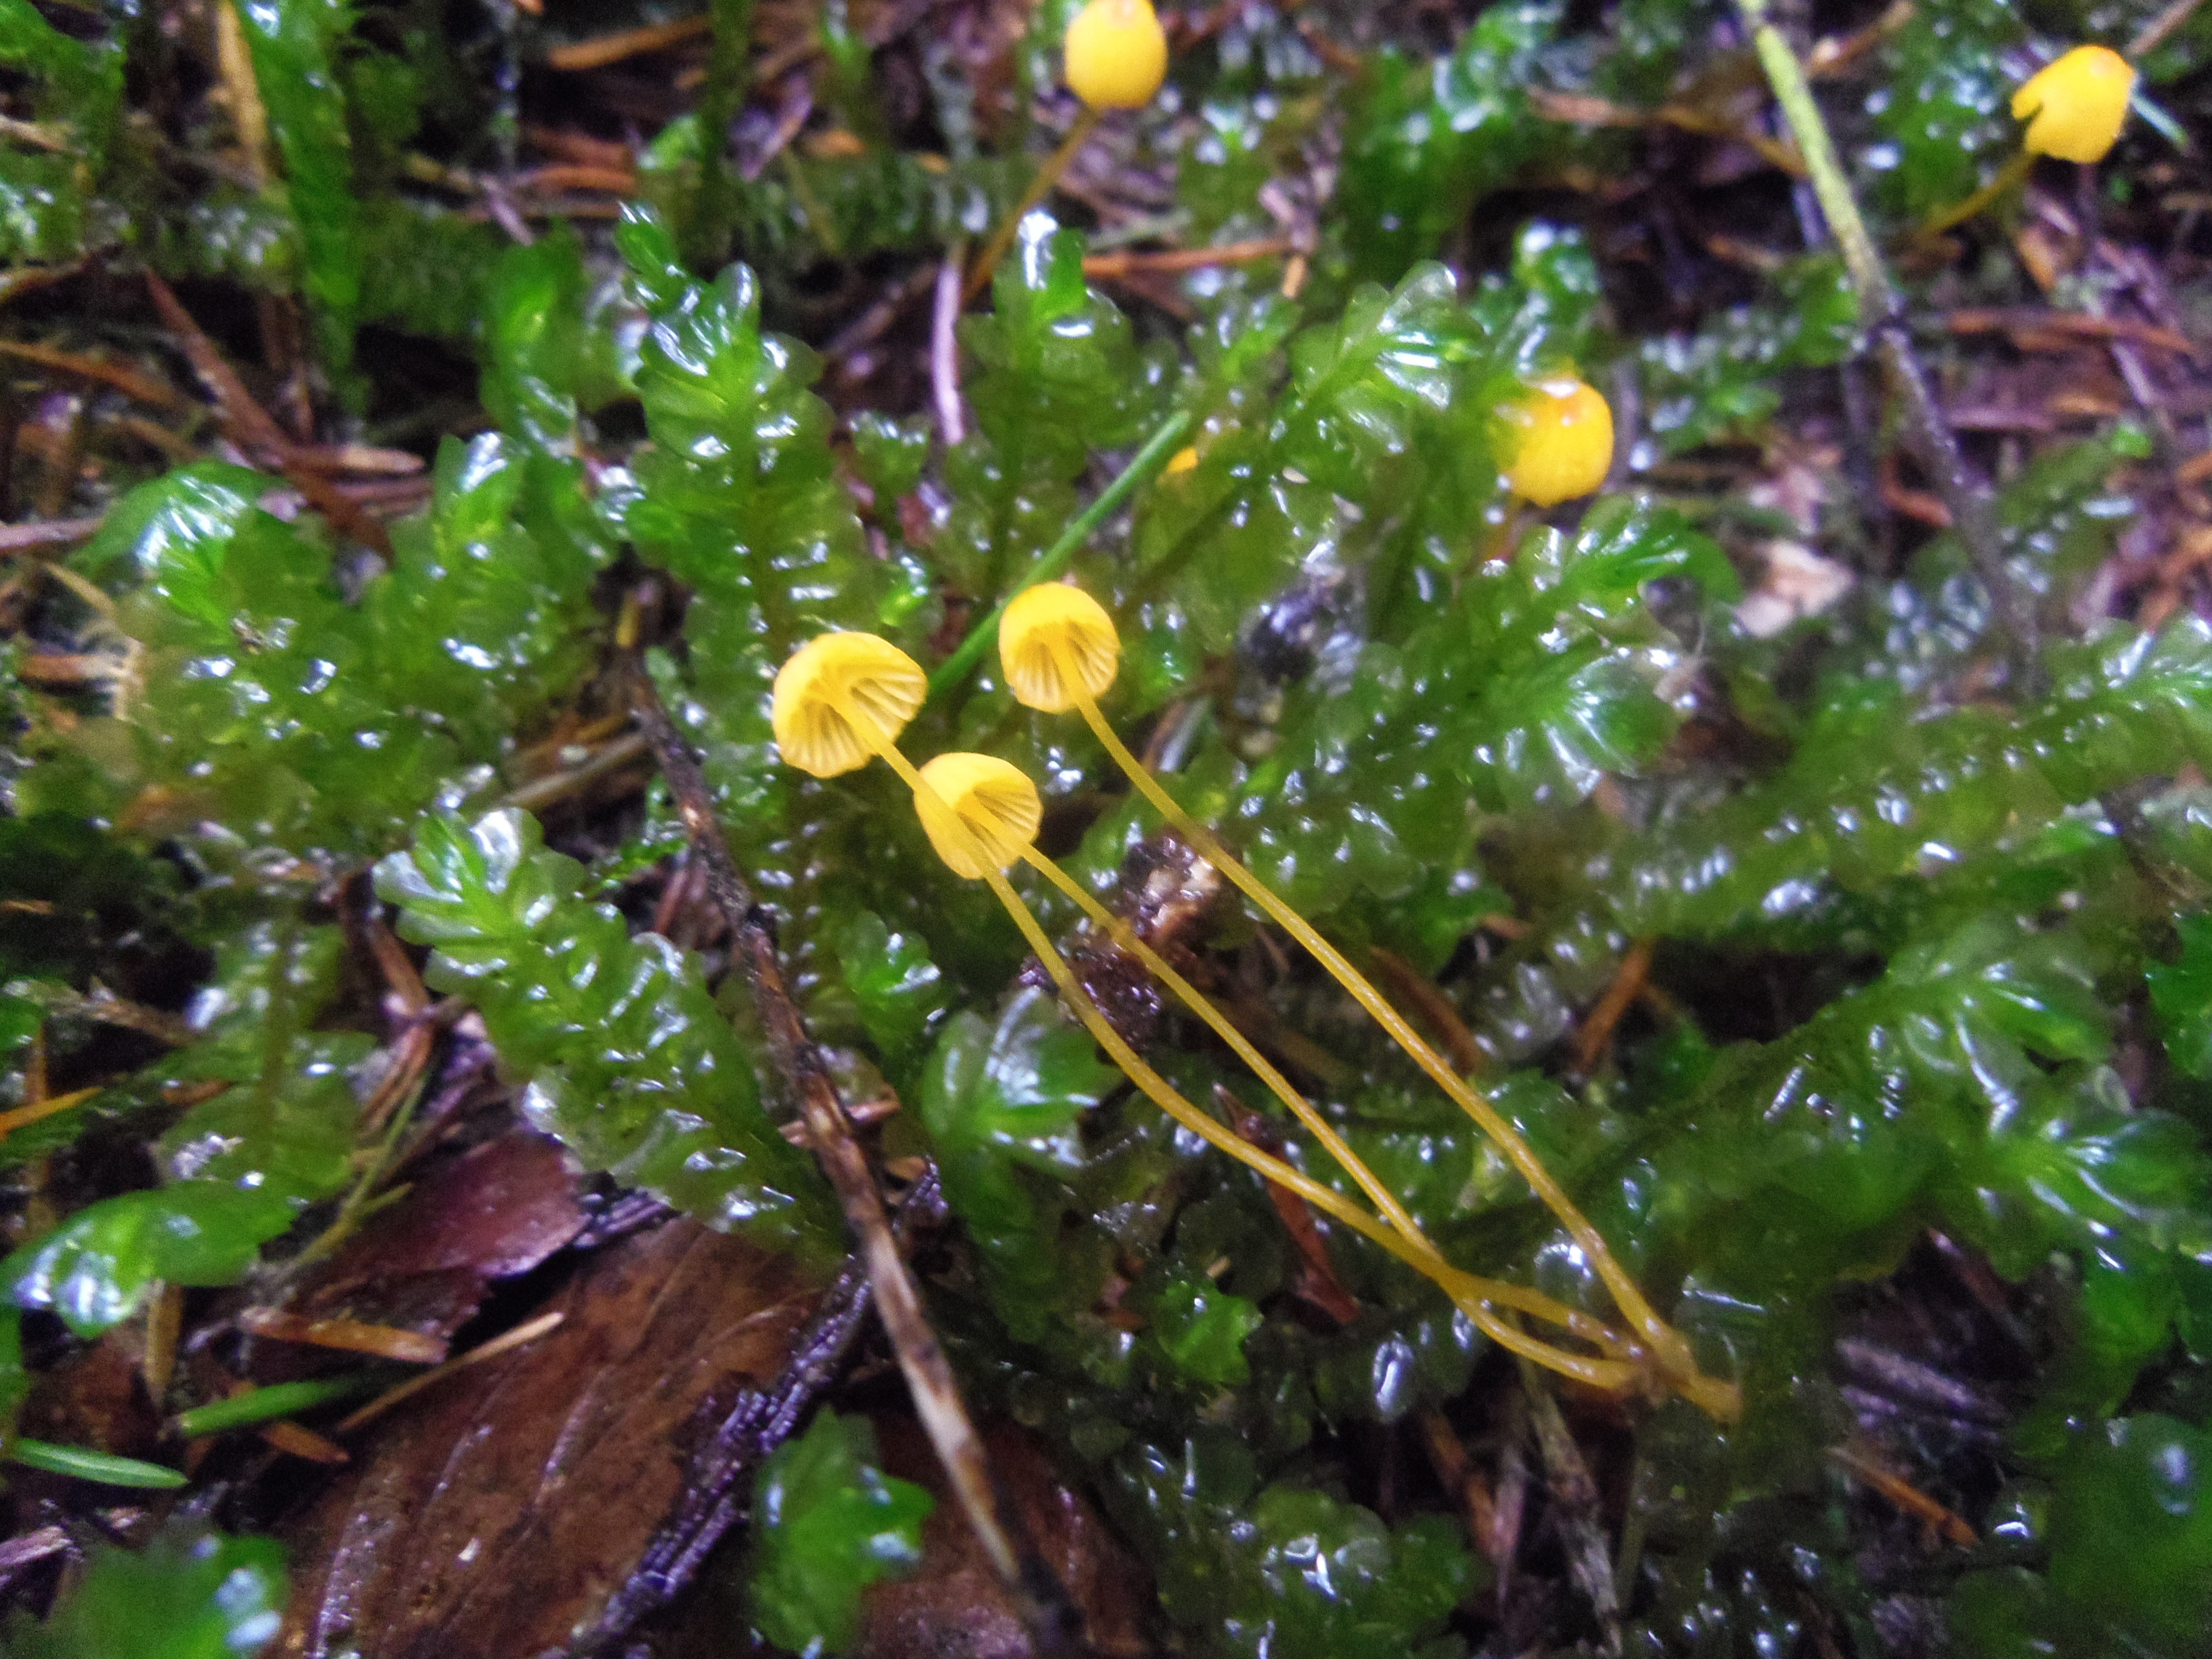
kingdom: Fungi
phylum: Basidiomycota
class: Agaricomycetes
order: Agaricales
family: Mycenaceae
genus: Mycena
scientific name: Mycena oregonensis
